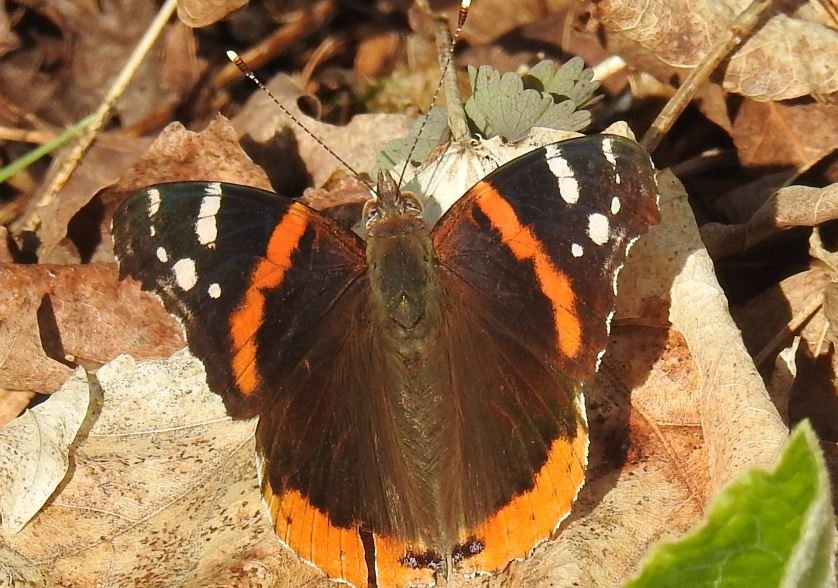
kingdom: Animalia
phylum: Arthropoda
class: Insecta
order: Lepidoptera
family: Nymphalidae
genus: Vanessa
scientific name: Vanessa atalanta
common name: Red Admiral
